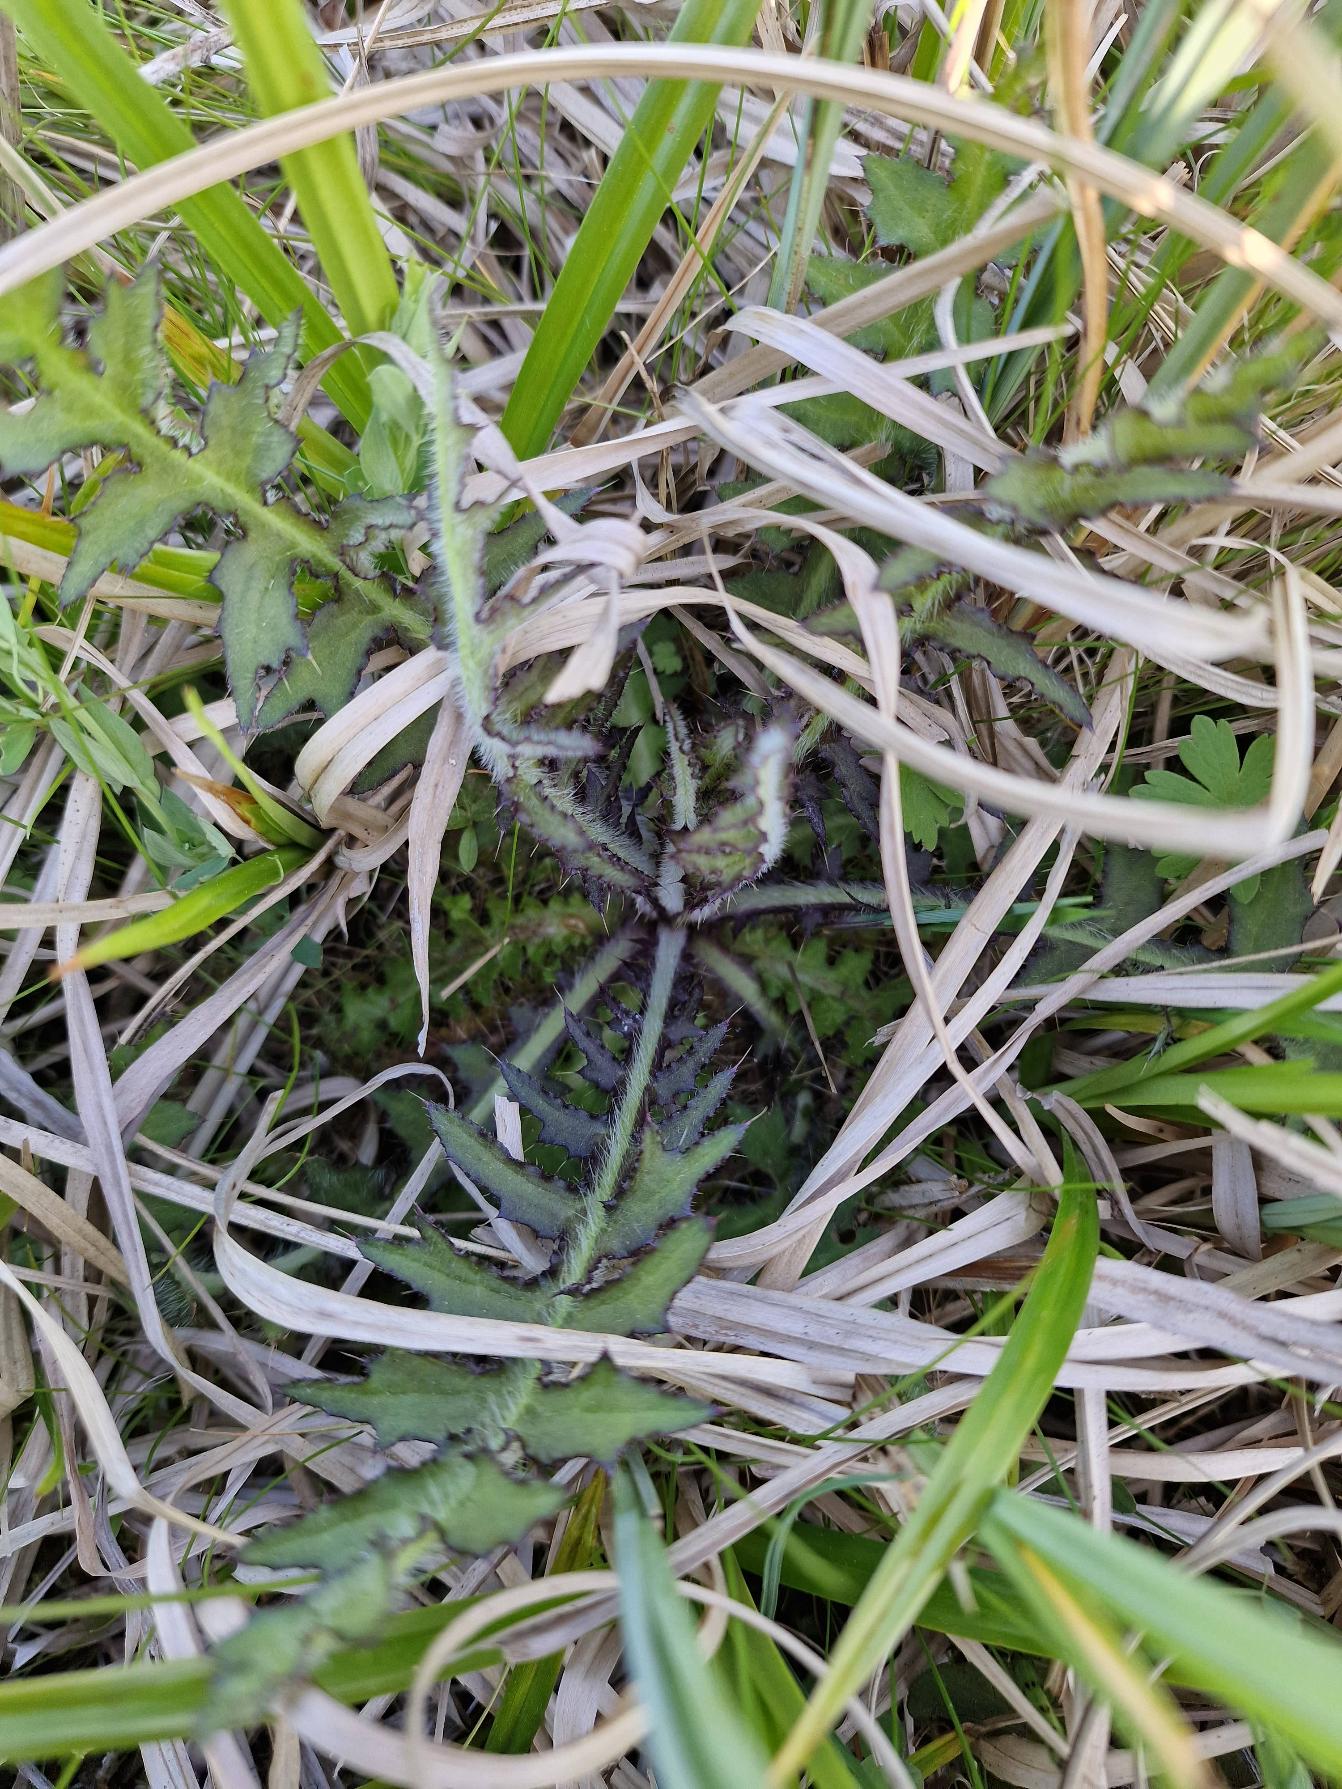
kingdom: Plantae
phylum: Tracheophyta
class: Magnoliopsida
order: Asterales
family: Asteraceae
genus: Cirsium
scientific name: Cirsium palustre
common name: Kær-tidsel
